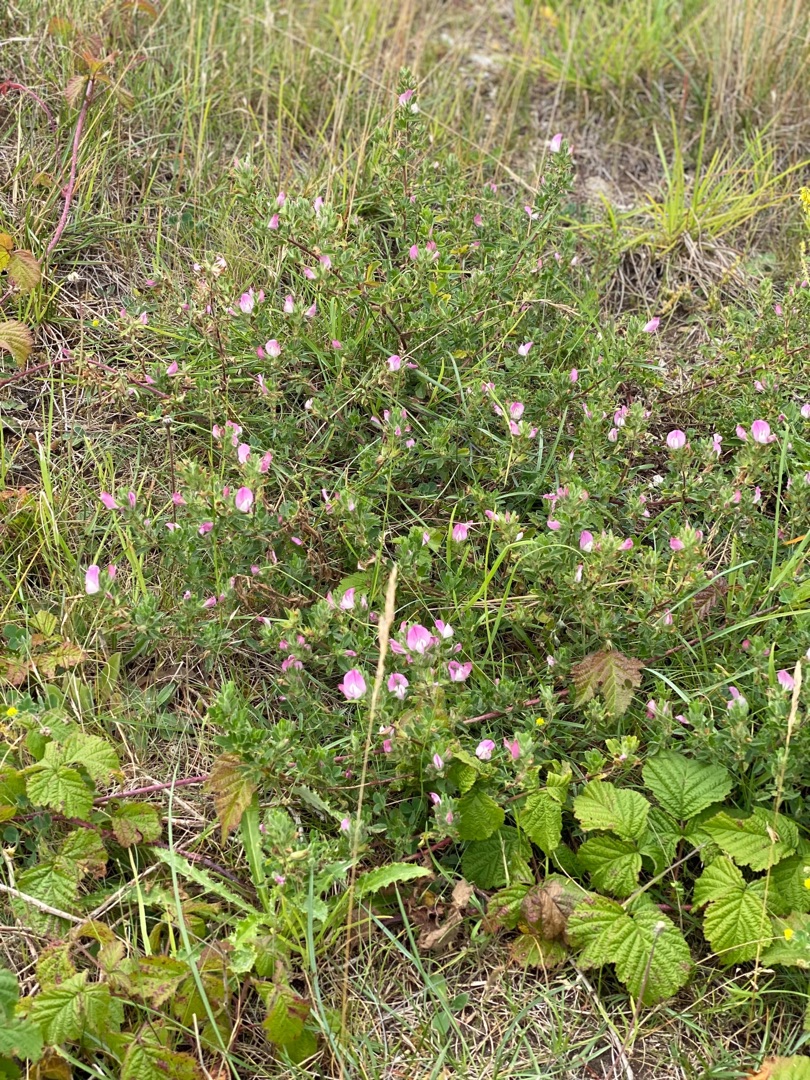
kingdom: Plantae
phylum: Tracheophyta
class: Magnoliopsida
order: Fabales
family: Fabaceae
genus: Ononis
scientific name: Ononis spinosa
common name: Mark-krageklo
